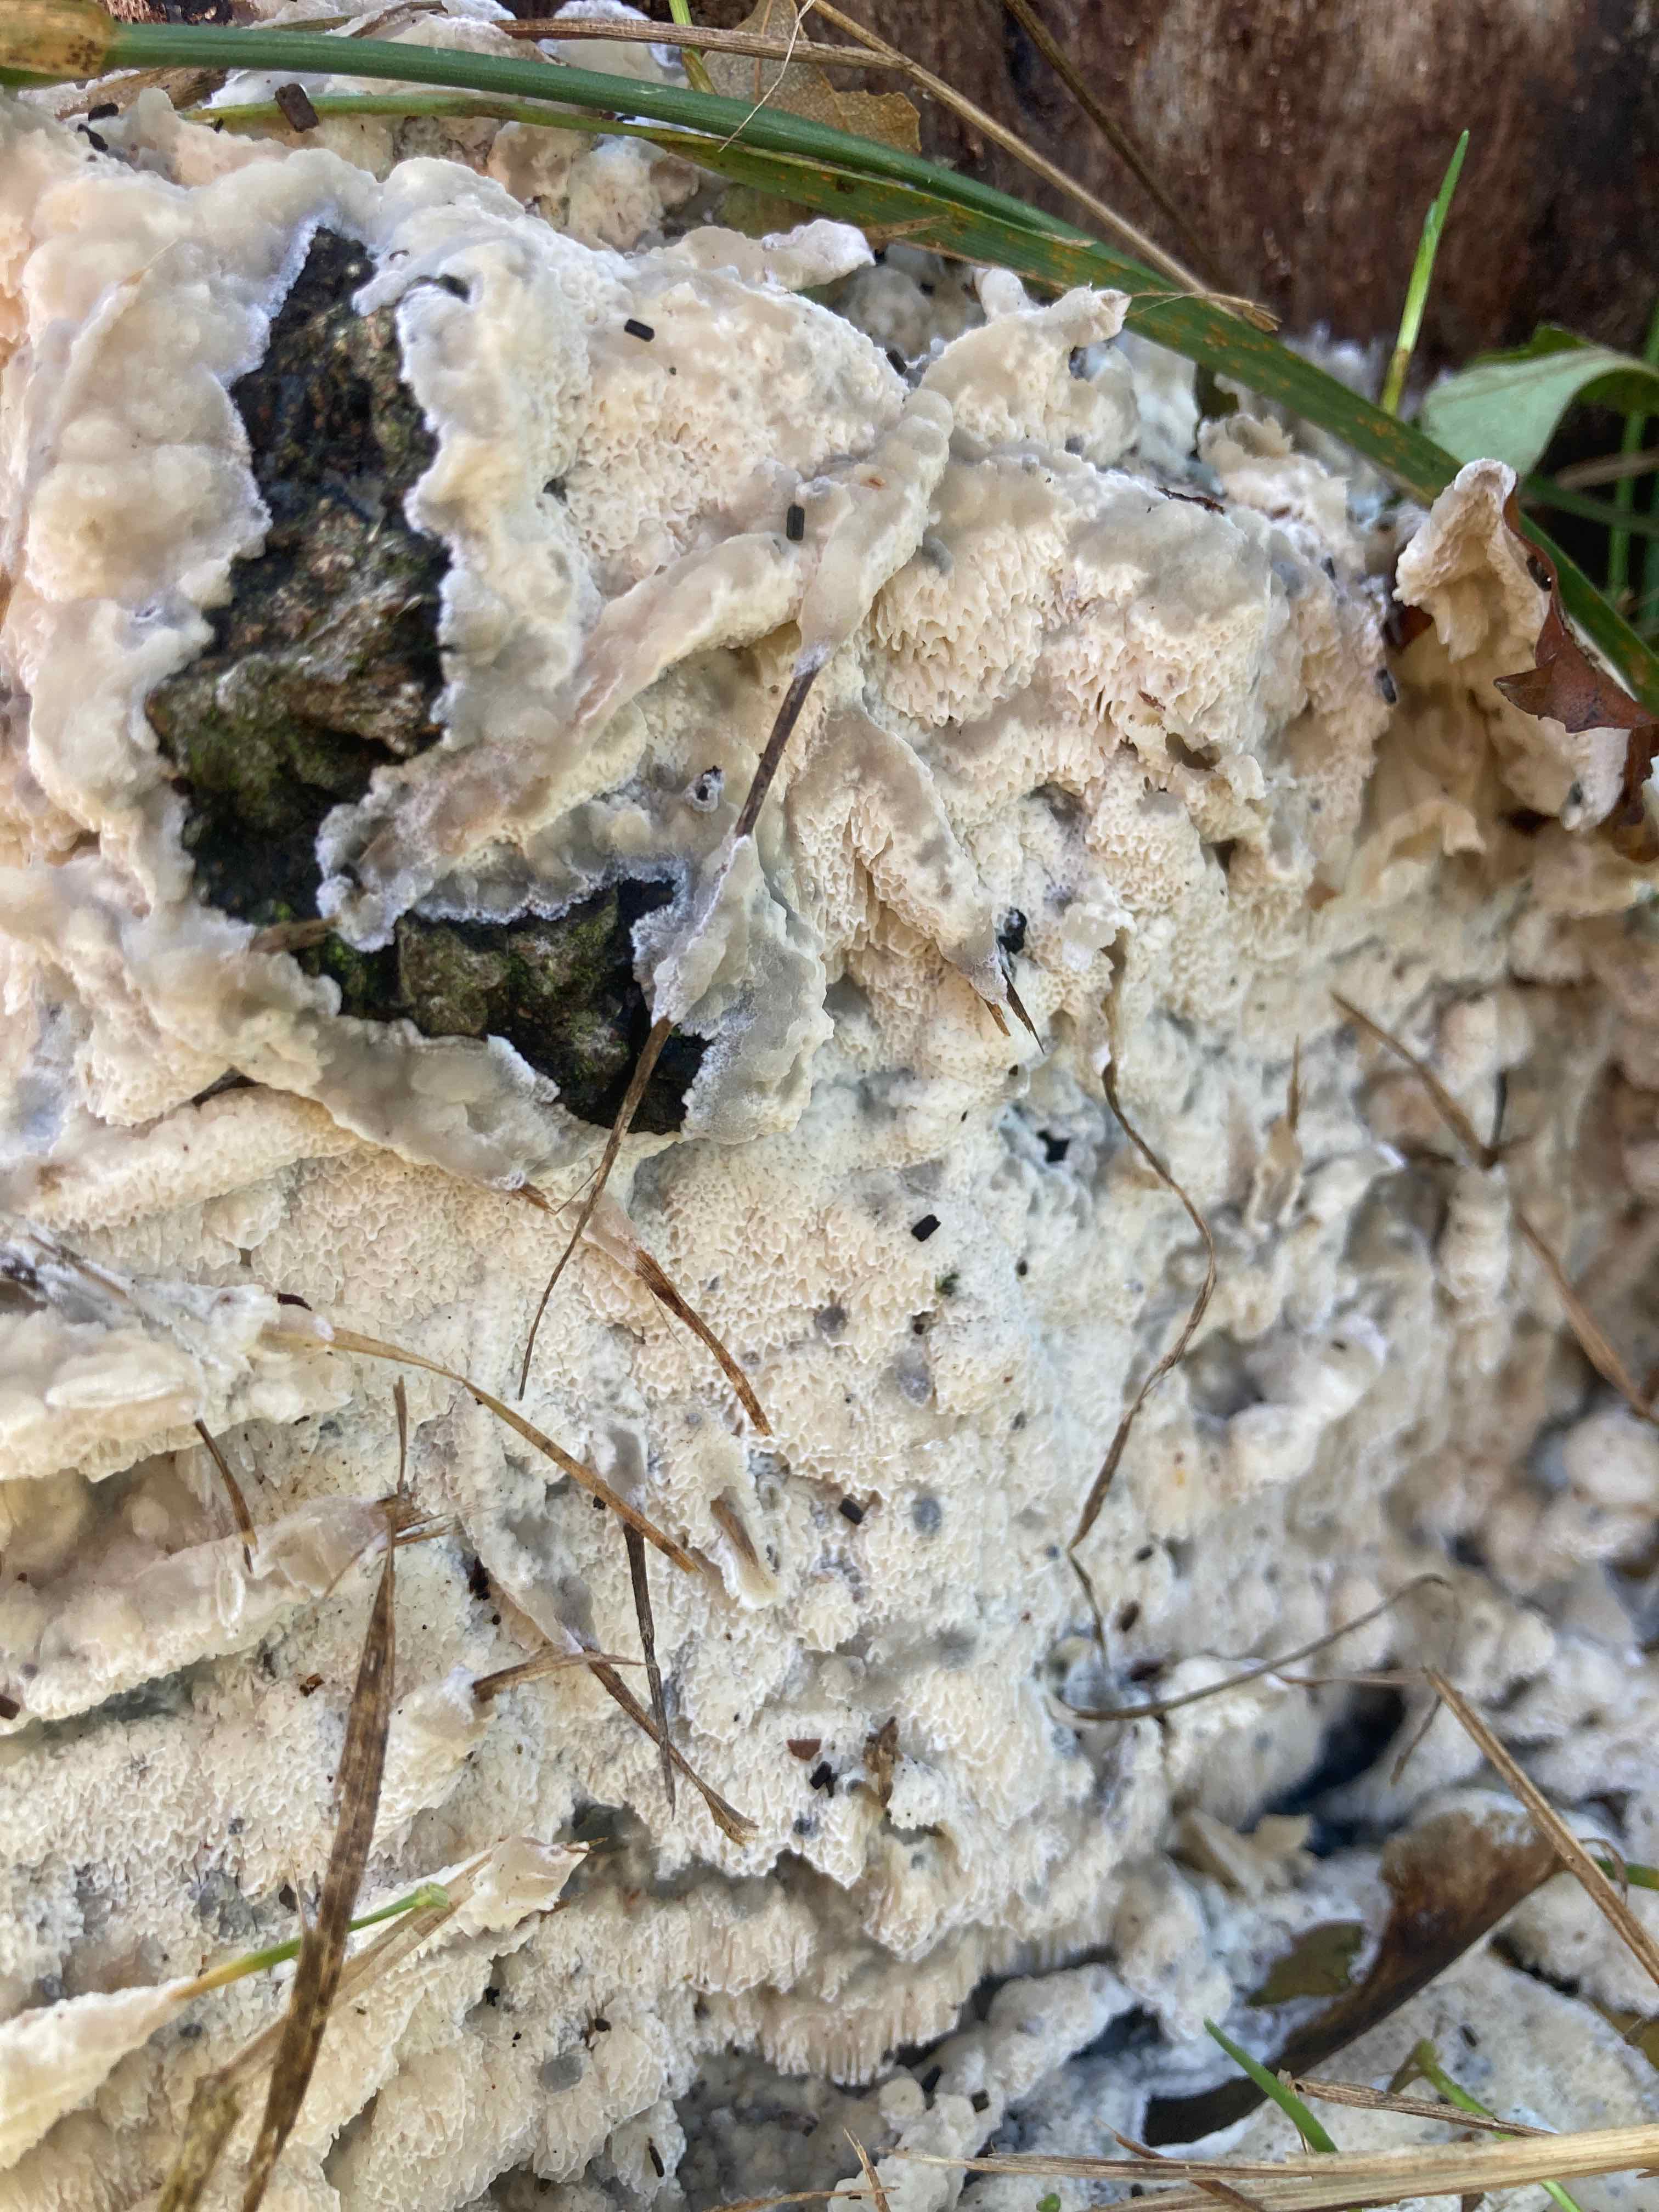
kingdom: Fungi
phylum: Basidiomycota
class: Agaricomycetes
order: Polyporales
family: Meruliaceae
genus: Physisporinus
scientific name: Physisporinus vitreus
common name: mastesvamp
